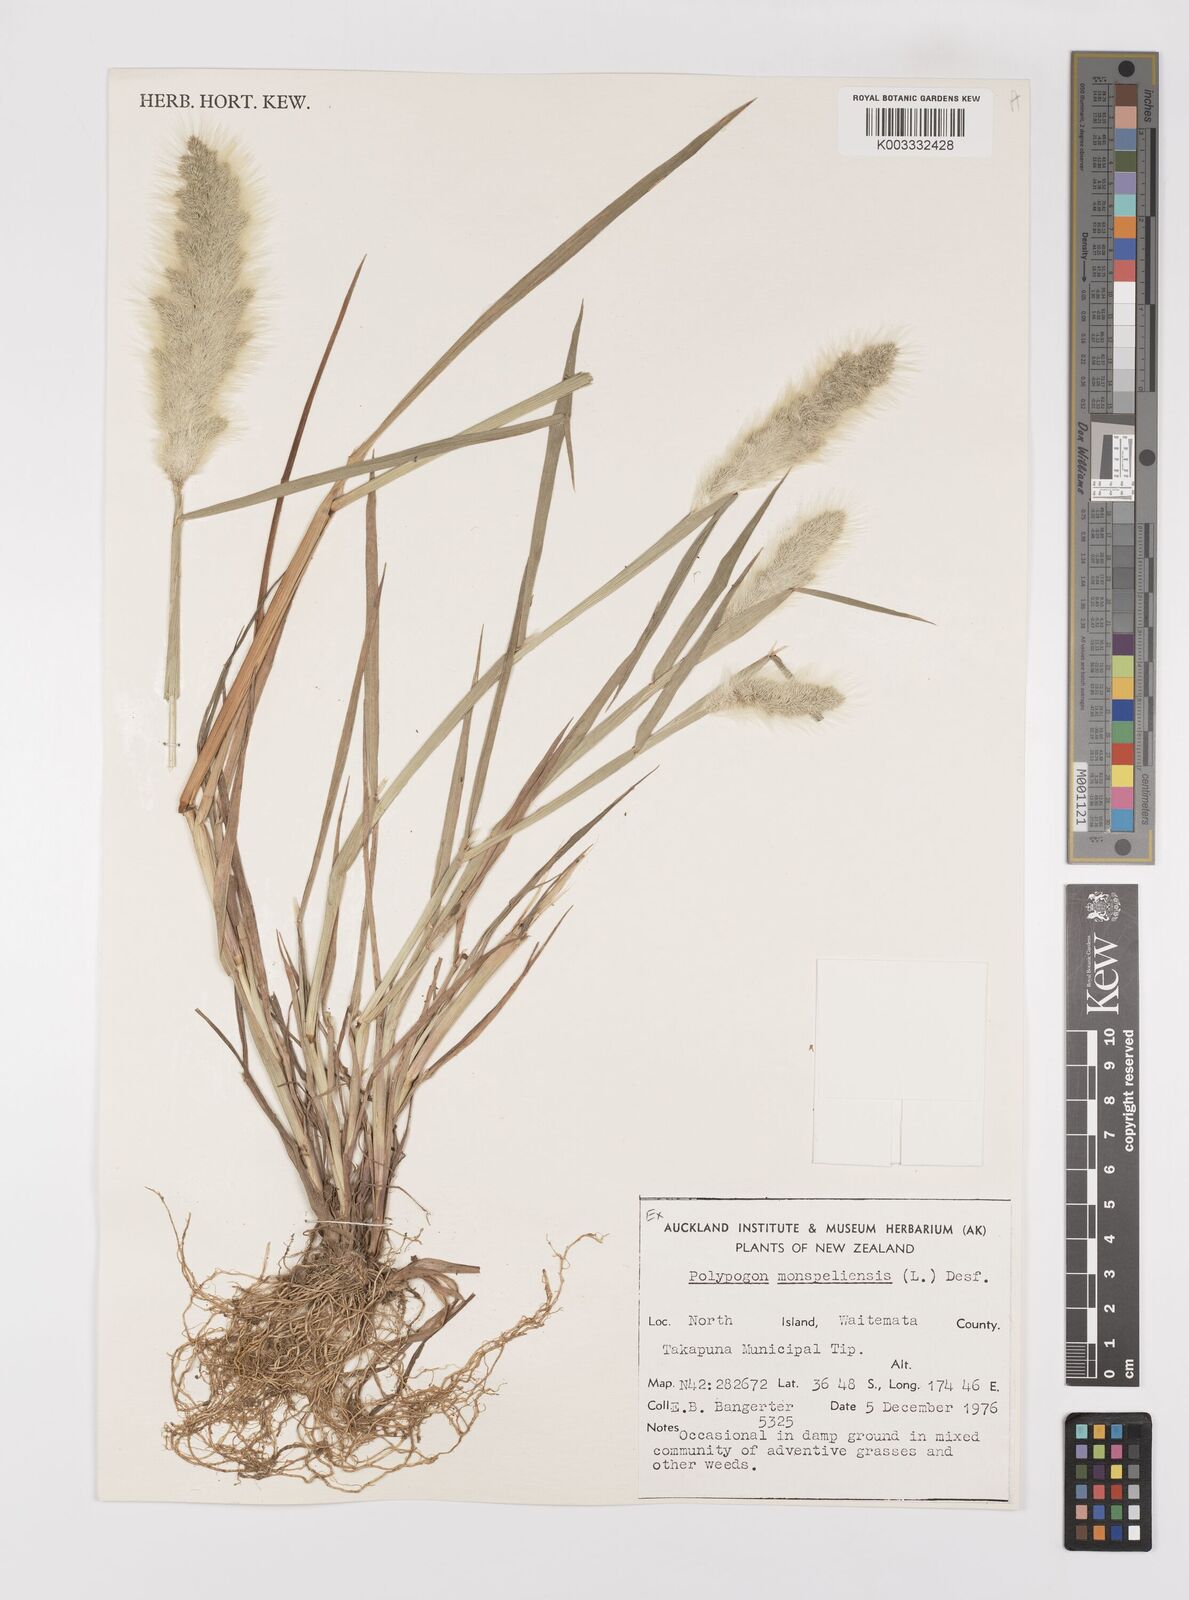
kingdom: Plantae
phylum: Tracheophyta
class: Liliopsida
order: Poales
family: Poaceae
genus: Polypogon
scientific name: Polypogon monspeliensis
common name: Annual rabbitsfoot grass
